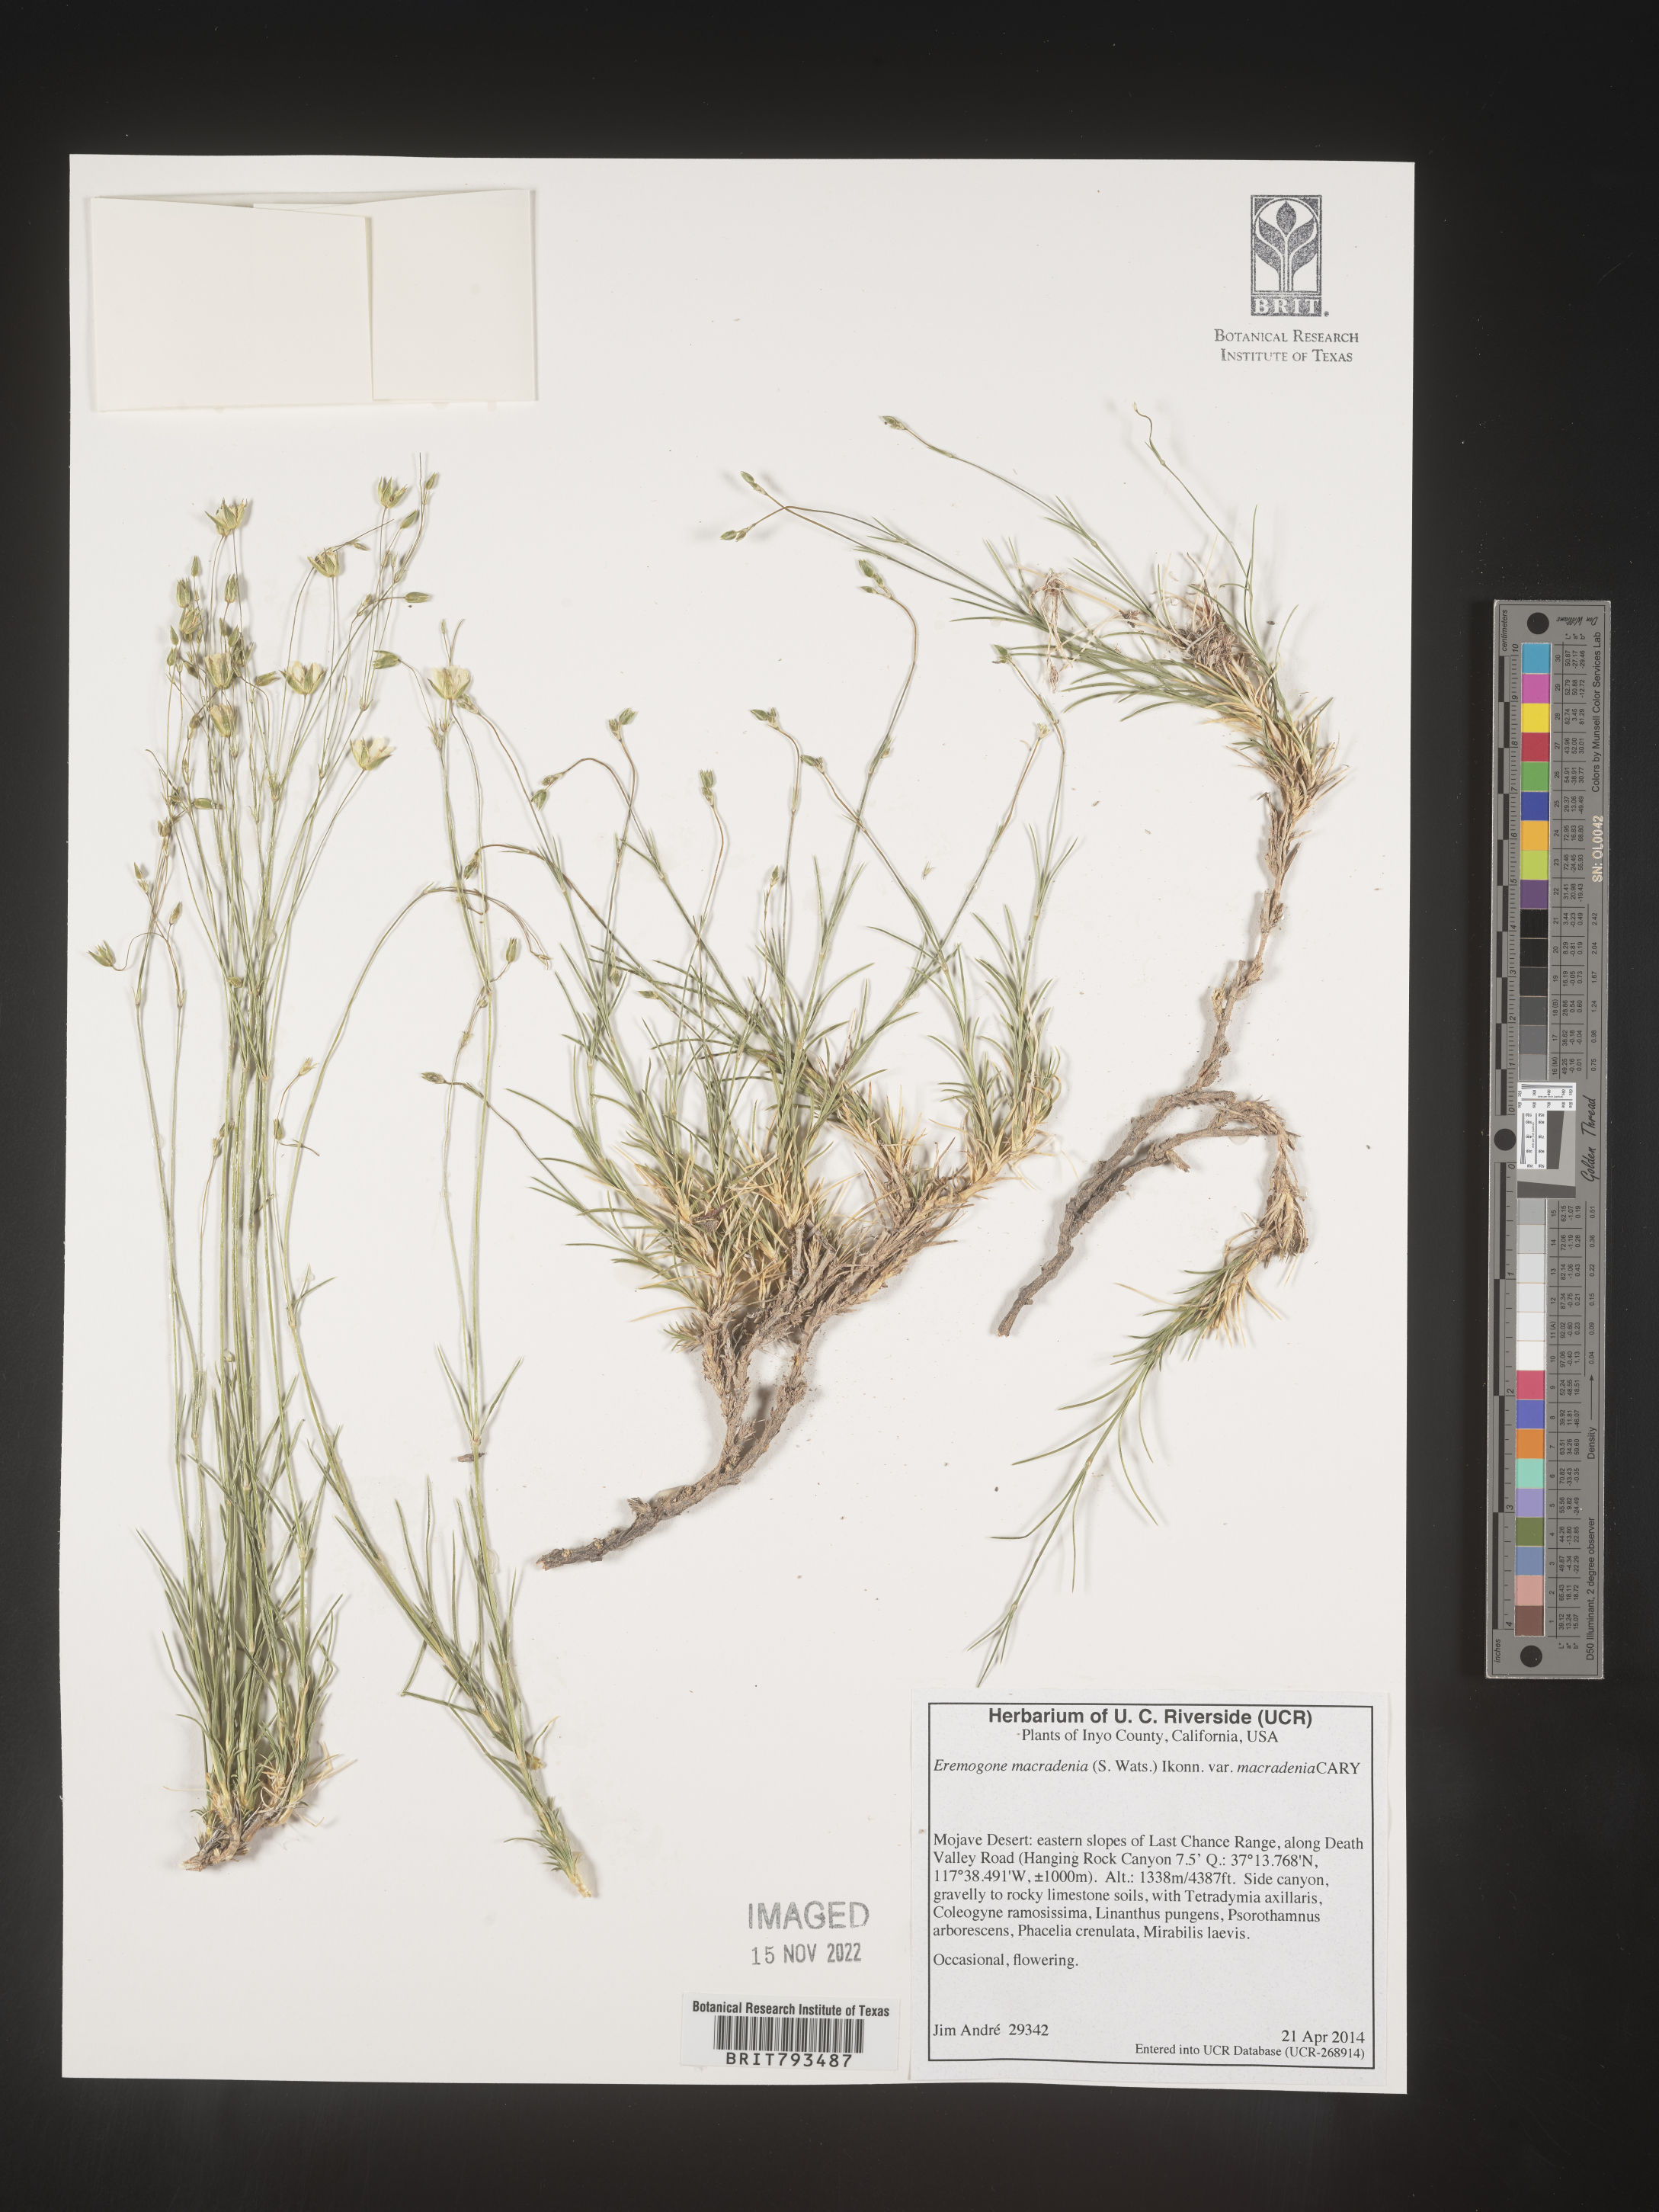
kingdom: Plantae
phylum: Tracheophyta
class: Magnoliopsida
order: Caryophyllales
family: Caryophyllaceae
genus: Eremogone
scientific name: Eremogone macradenia
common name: Mohave sandwort
